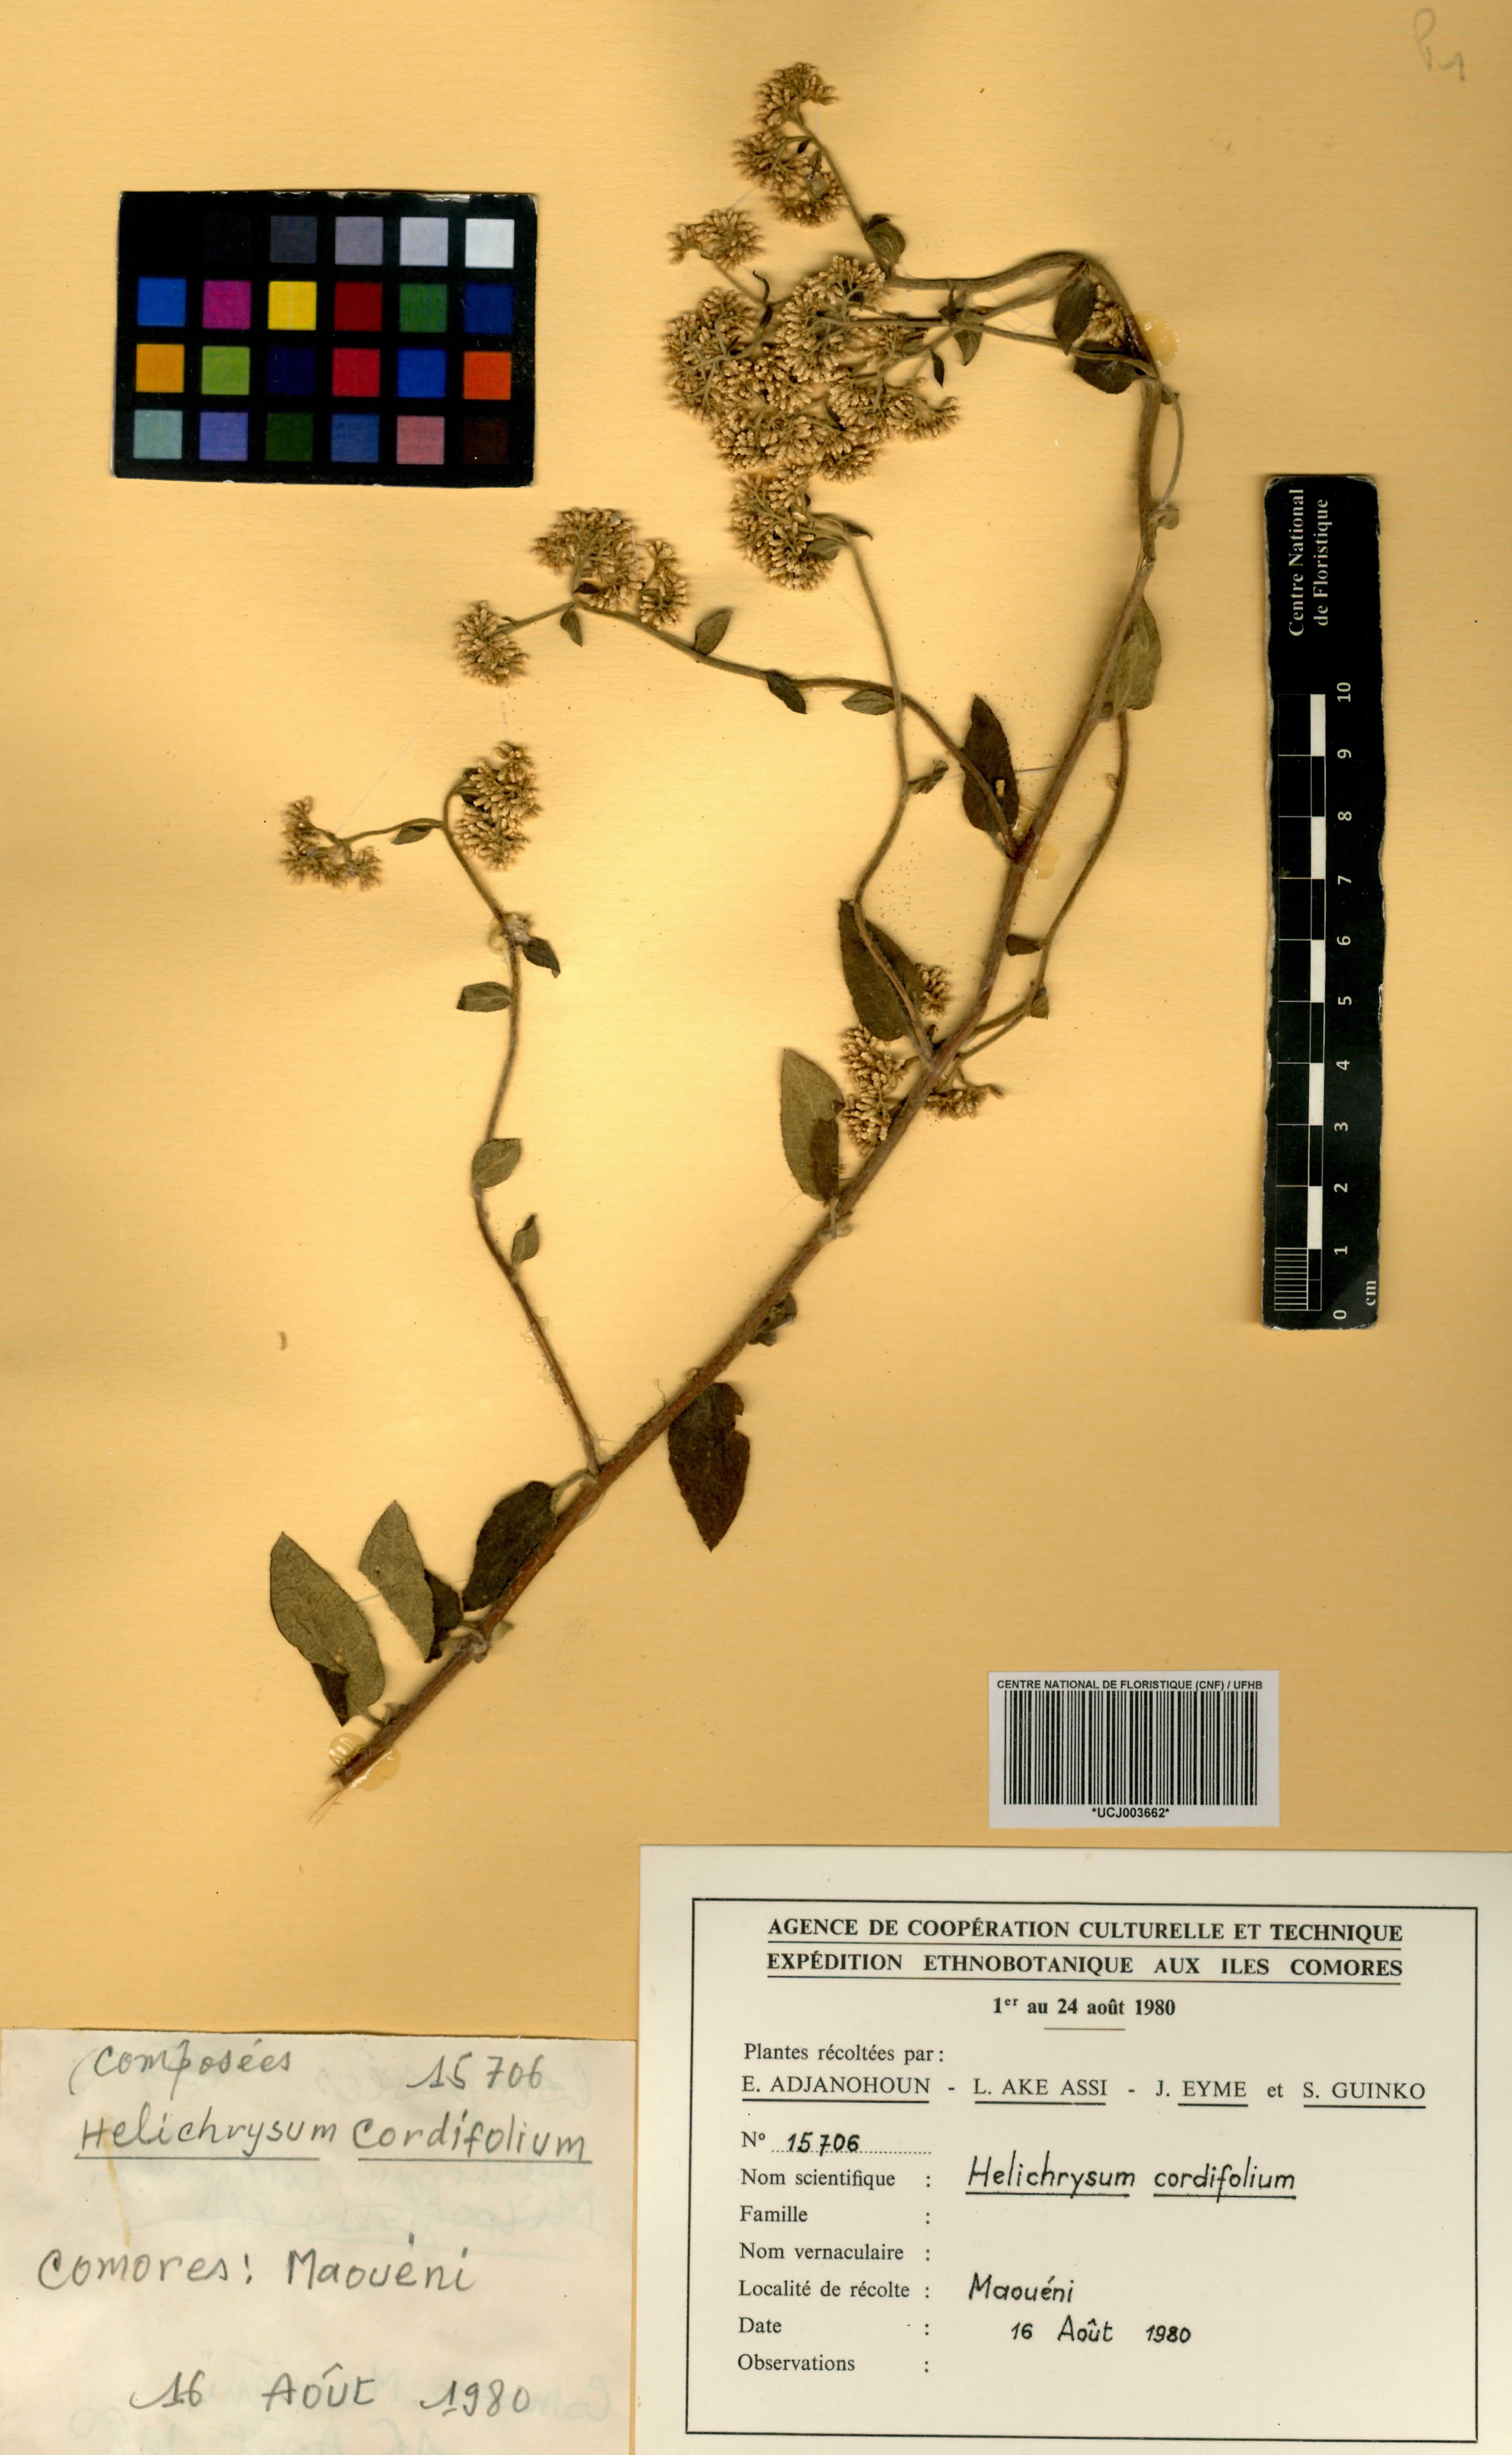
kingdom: Plantae
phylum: Tracheophyta
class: Magnoliopsida
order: Asterales
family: Asteraceae
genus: Helichrysum
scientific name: Helichrysum cordifolium
